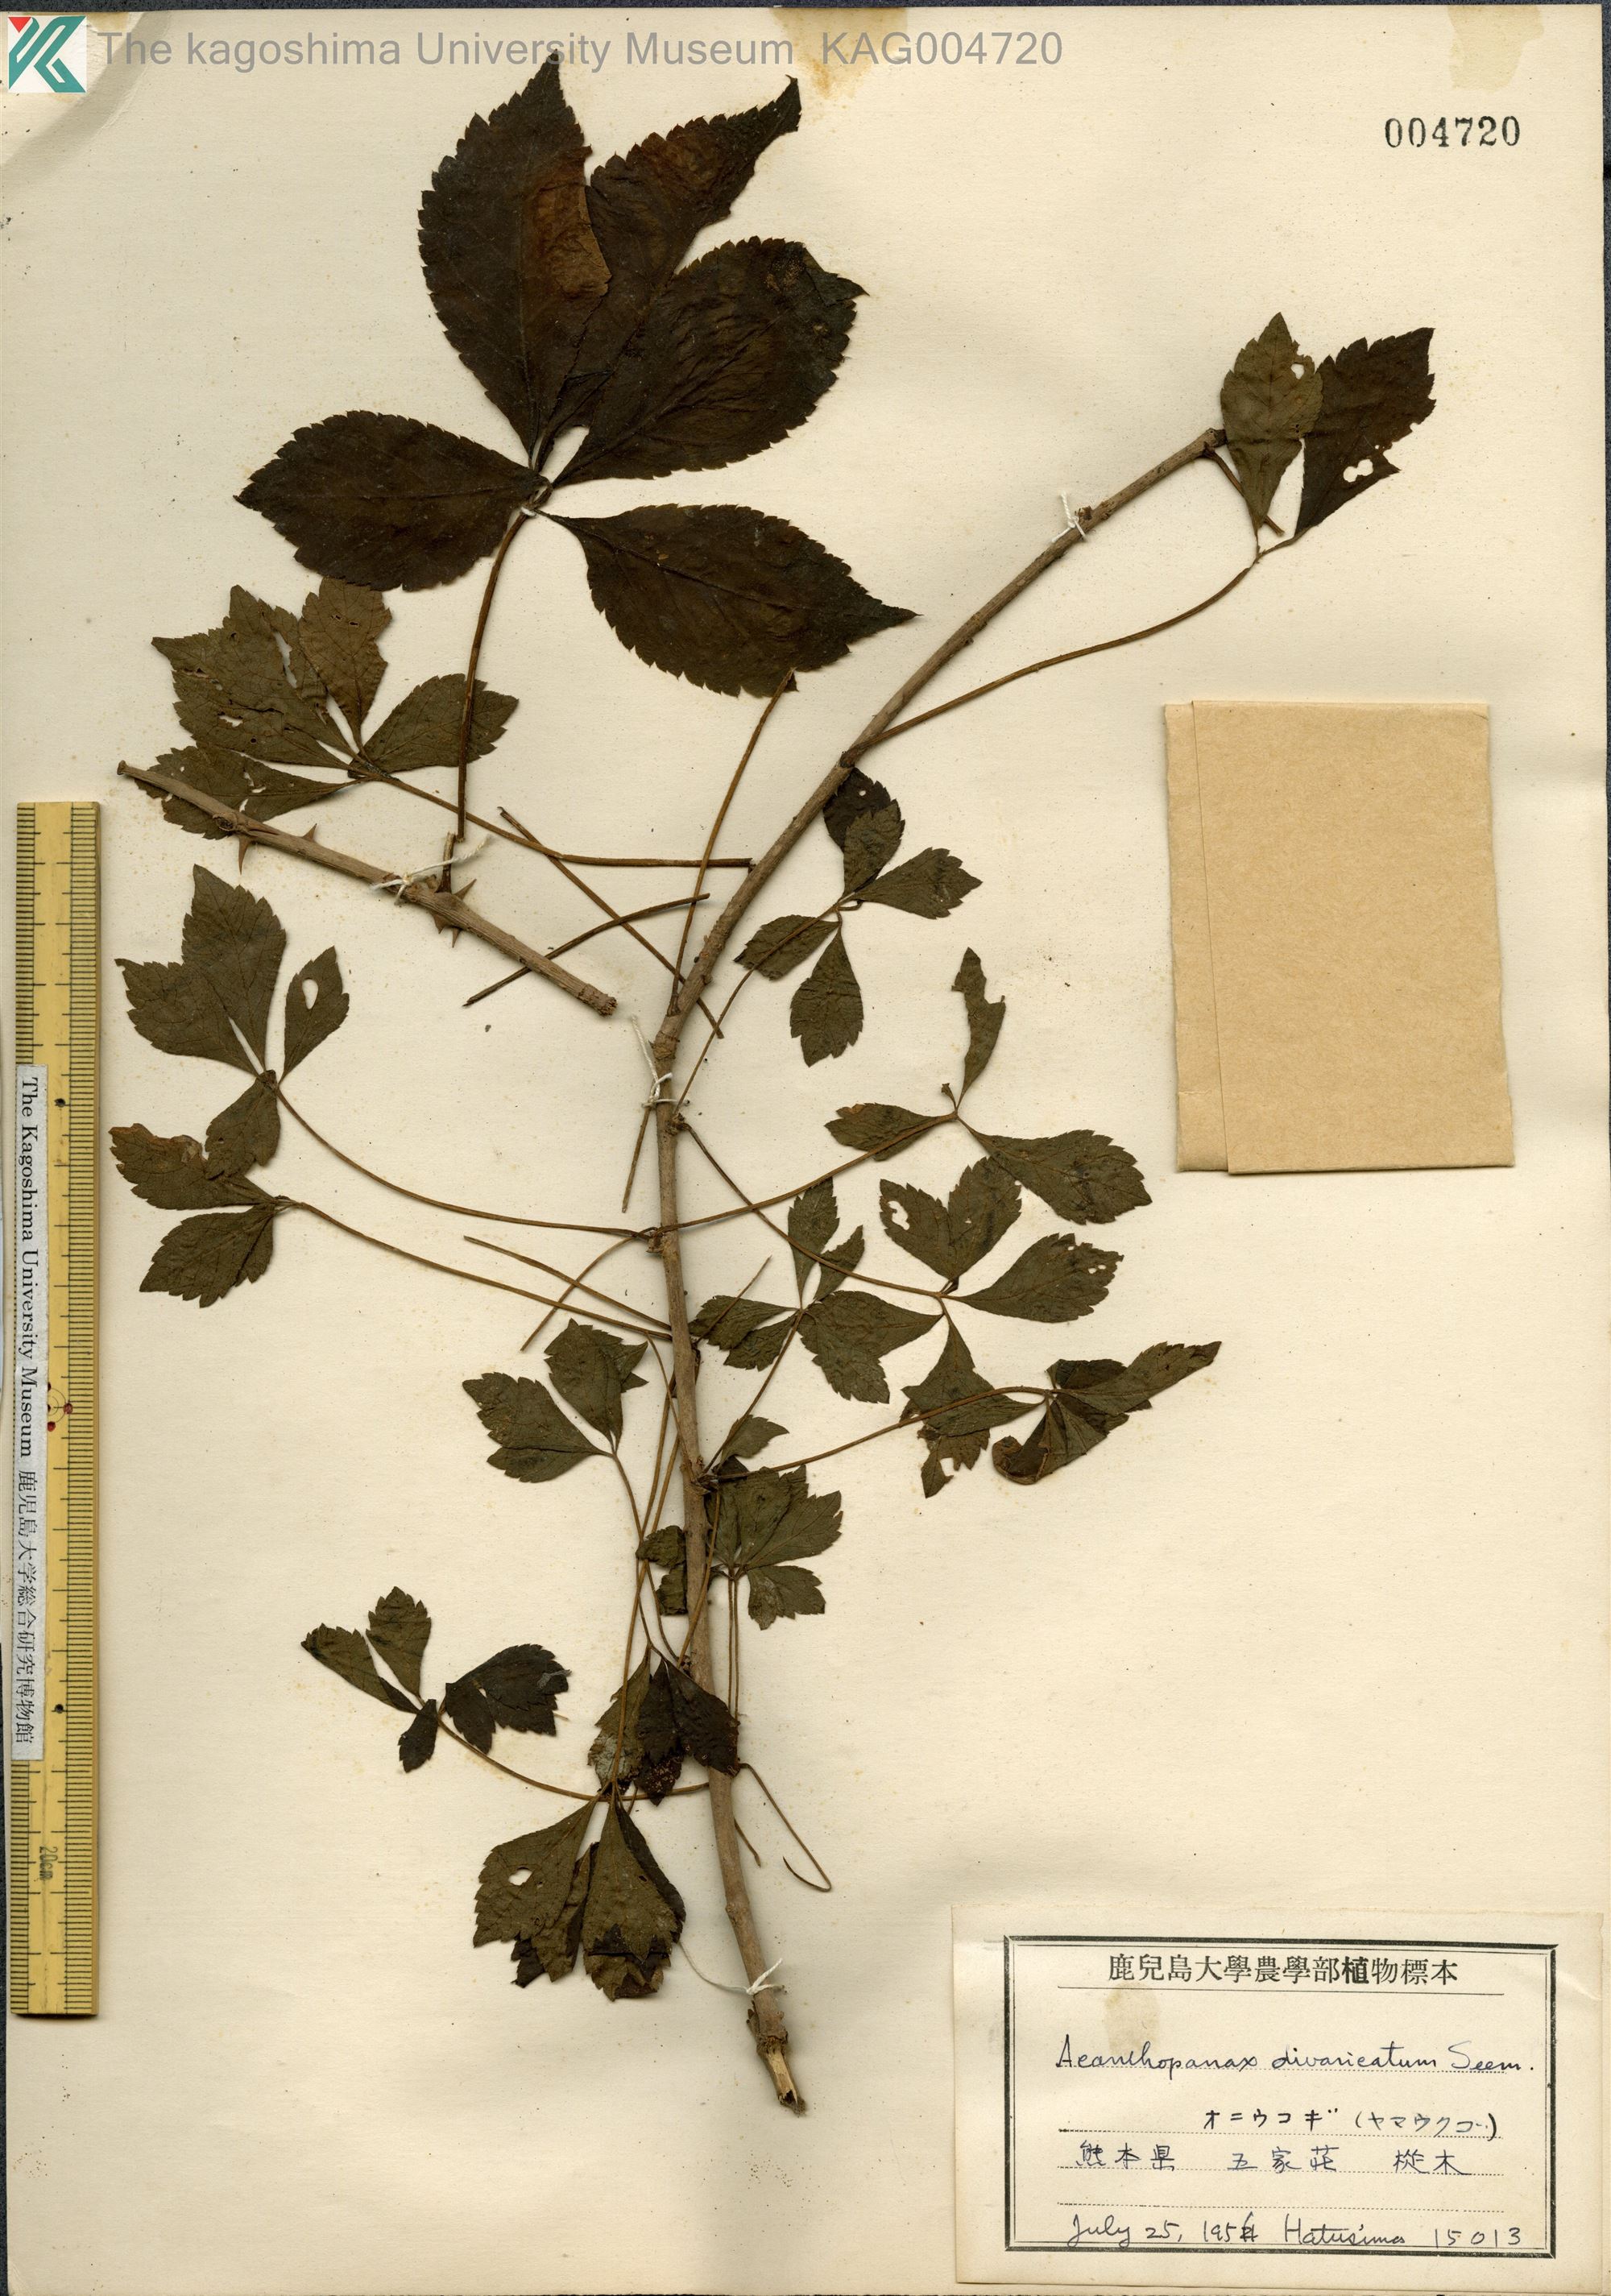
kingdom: Plantae
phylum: Tracheophyta
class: Magnoliopsida
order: Apiales
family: Araliaceae
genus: Eleutherococcus
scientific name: Eleutherococcus divaricatus
